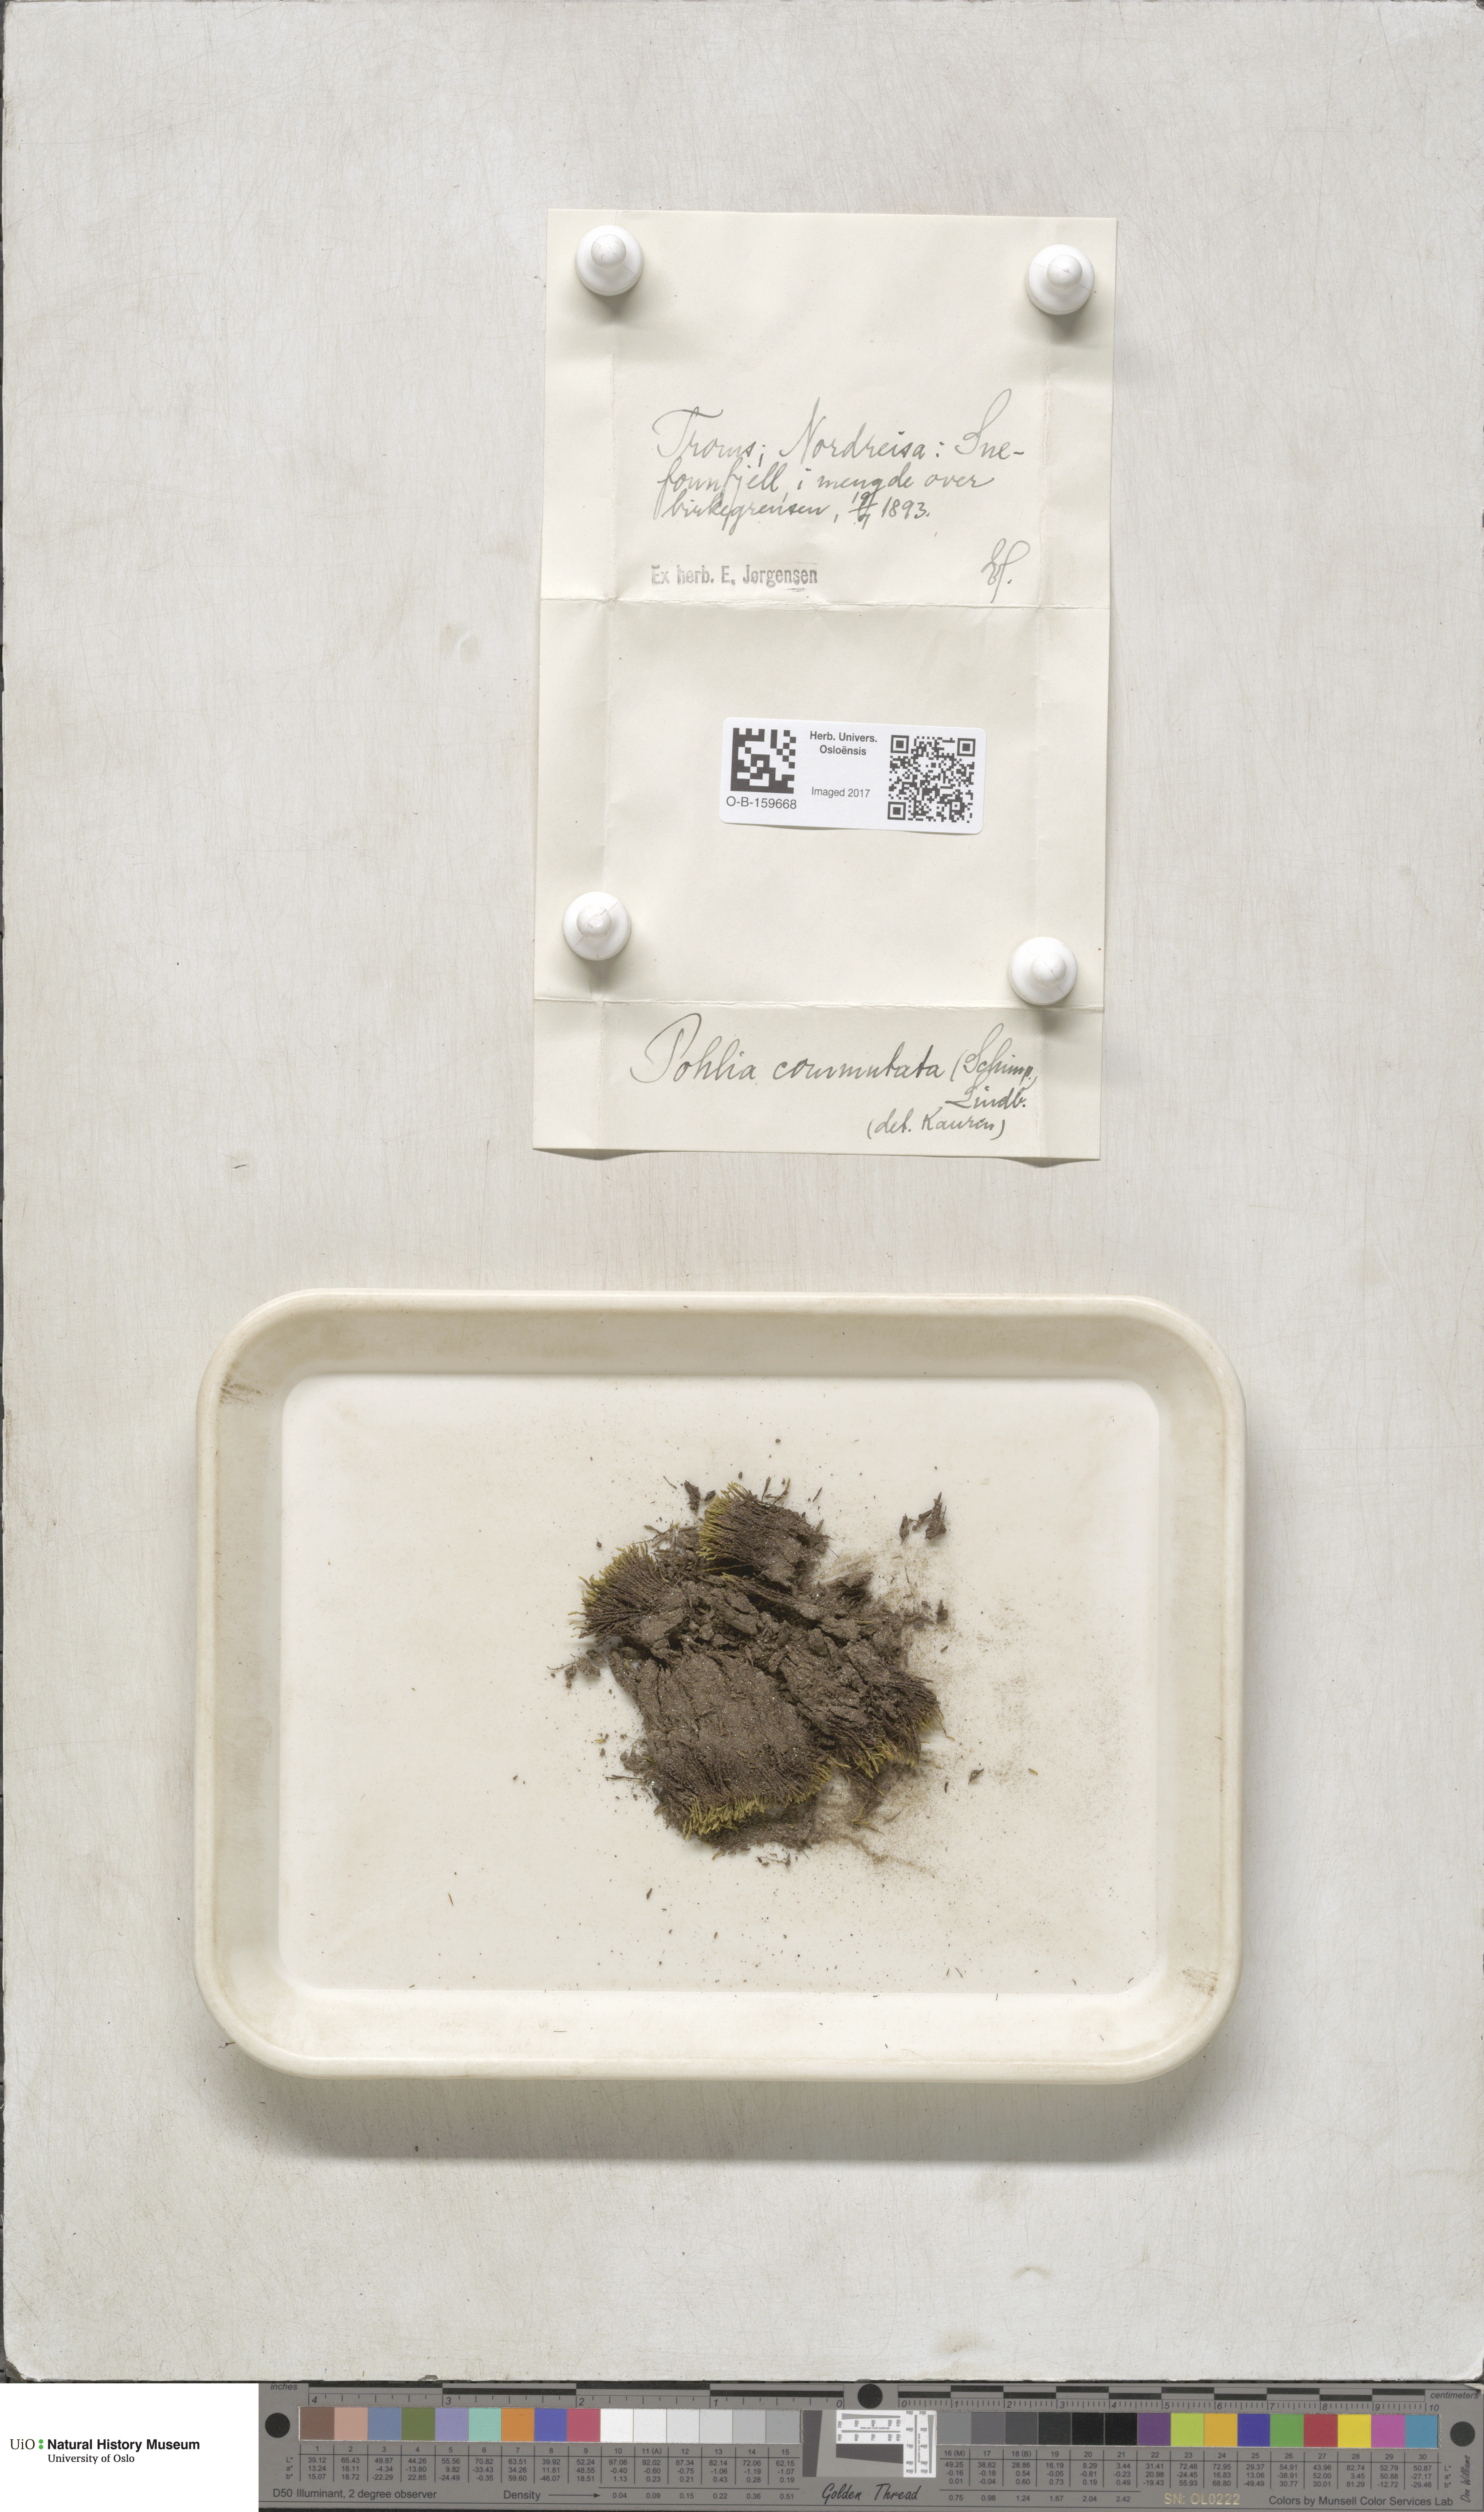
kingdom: Plantae
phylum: Bryophyta
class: Bryopsida
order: Bryales
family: Mniaceae
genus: Pohlia
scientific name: Pohlia drummondii
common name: Drummond's nodding moss
